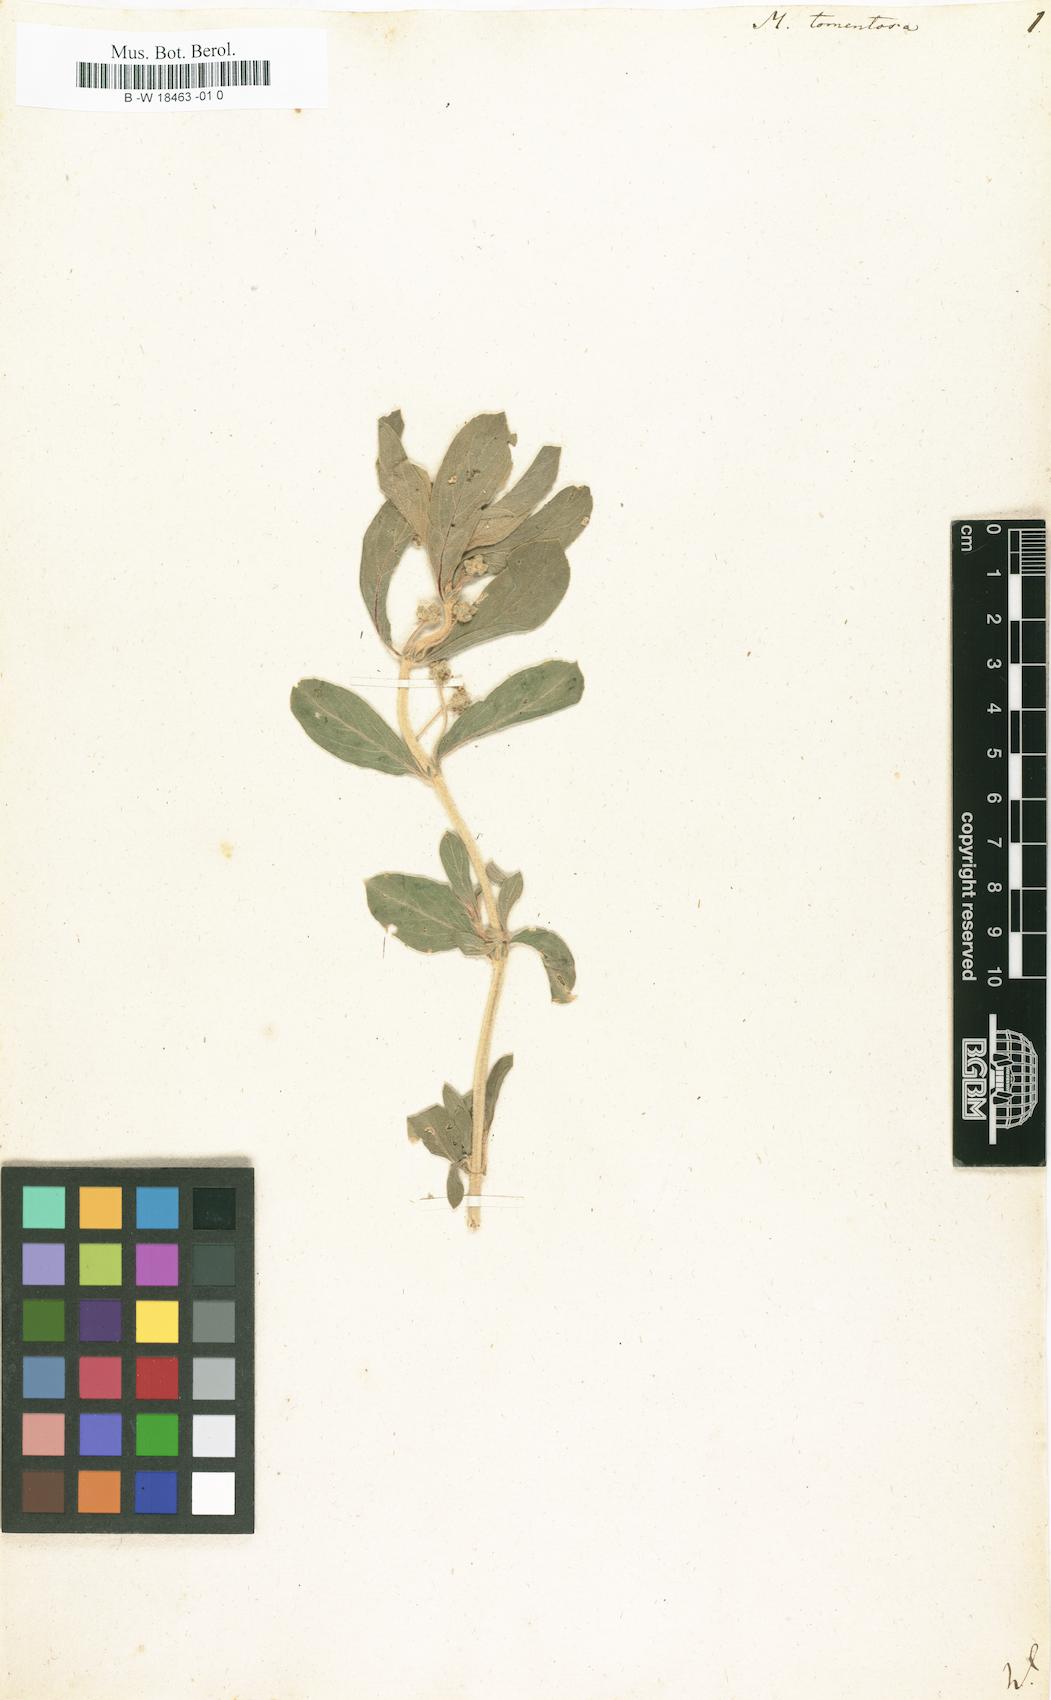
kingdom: Plantae
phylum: Tracheophyta
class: Magnoliopsida
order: Malpighiales
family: Euphorbiaceae
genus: Mercurialis
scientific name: Mercurialis tomentosa
